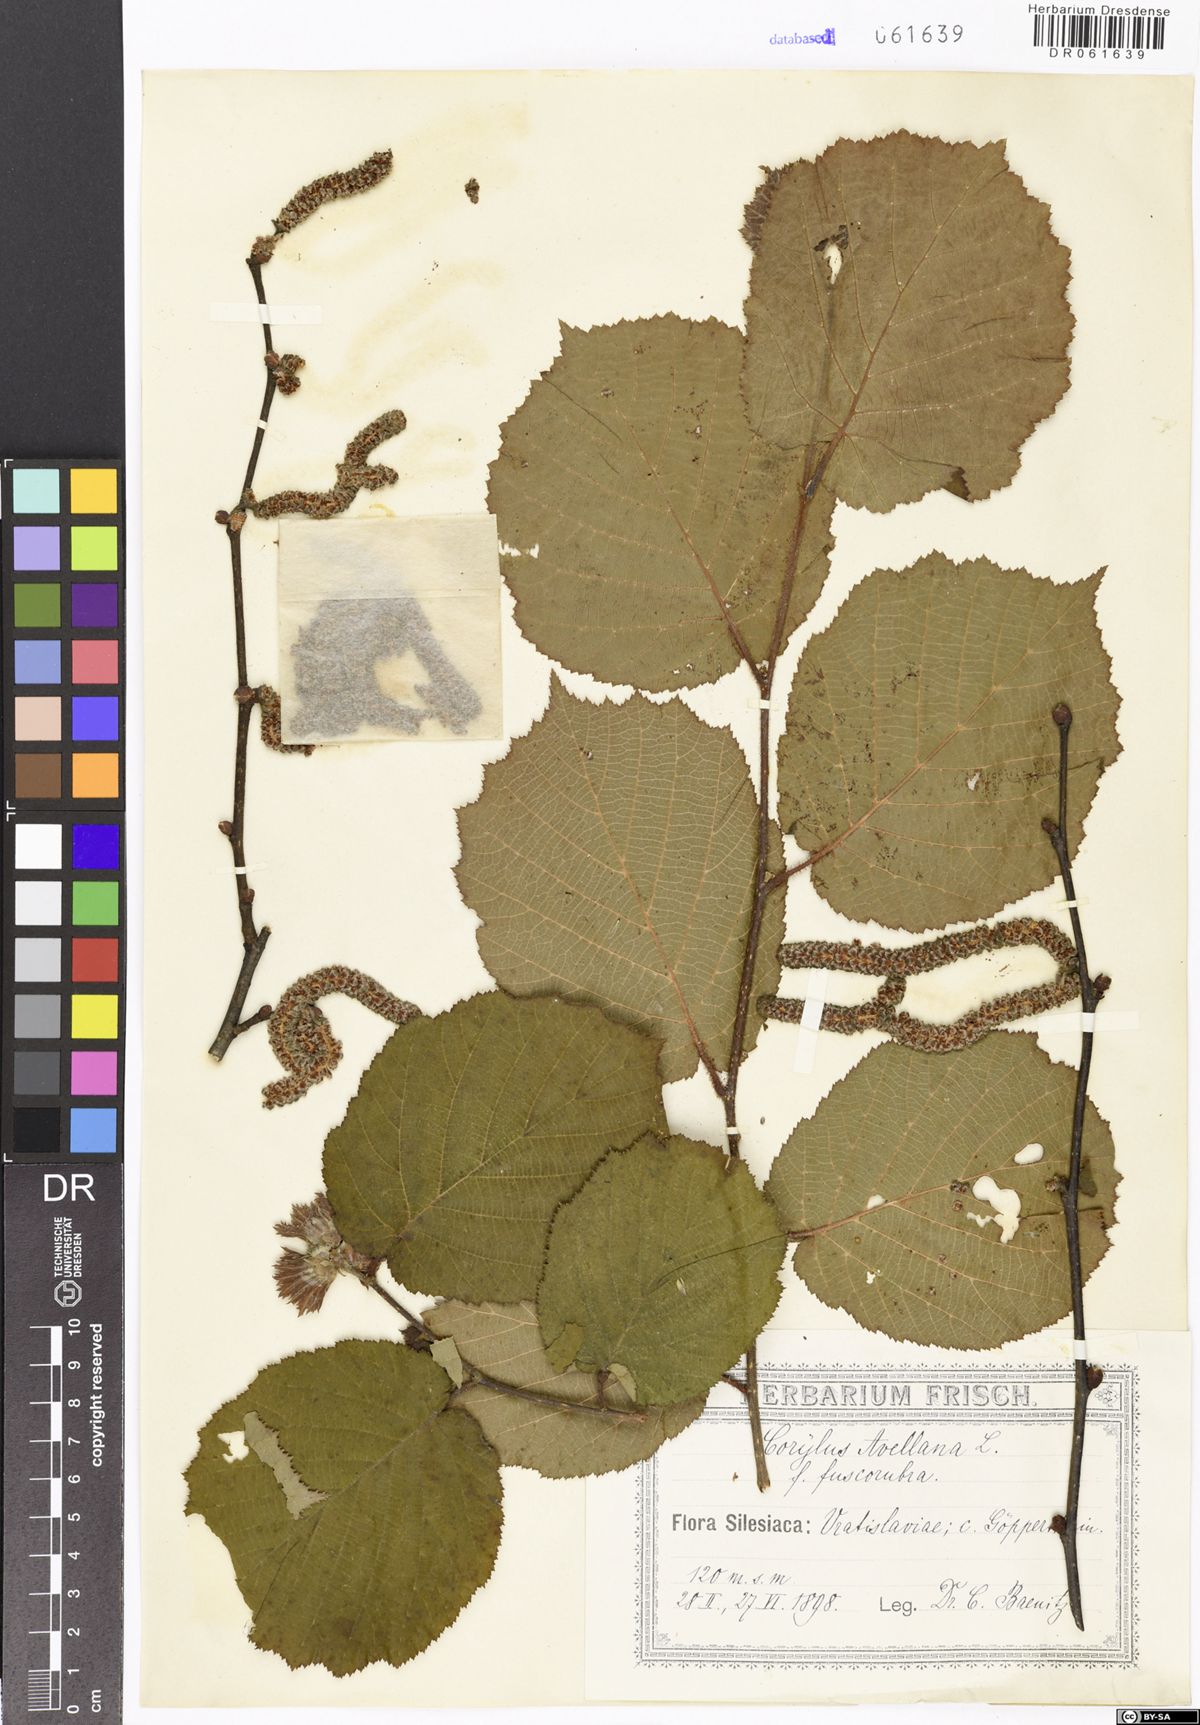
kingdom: Plantae
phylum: Tracheophyta
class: Magnoliopsida
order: Fagales
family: Betulaceae
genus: Corylus
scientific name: Corylus avellana
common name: European hazel
